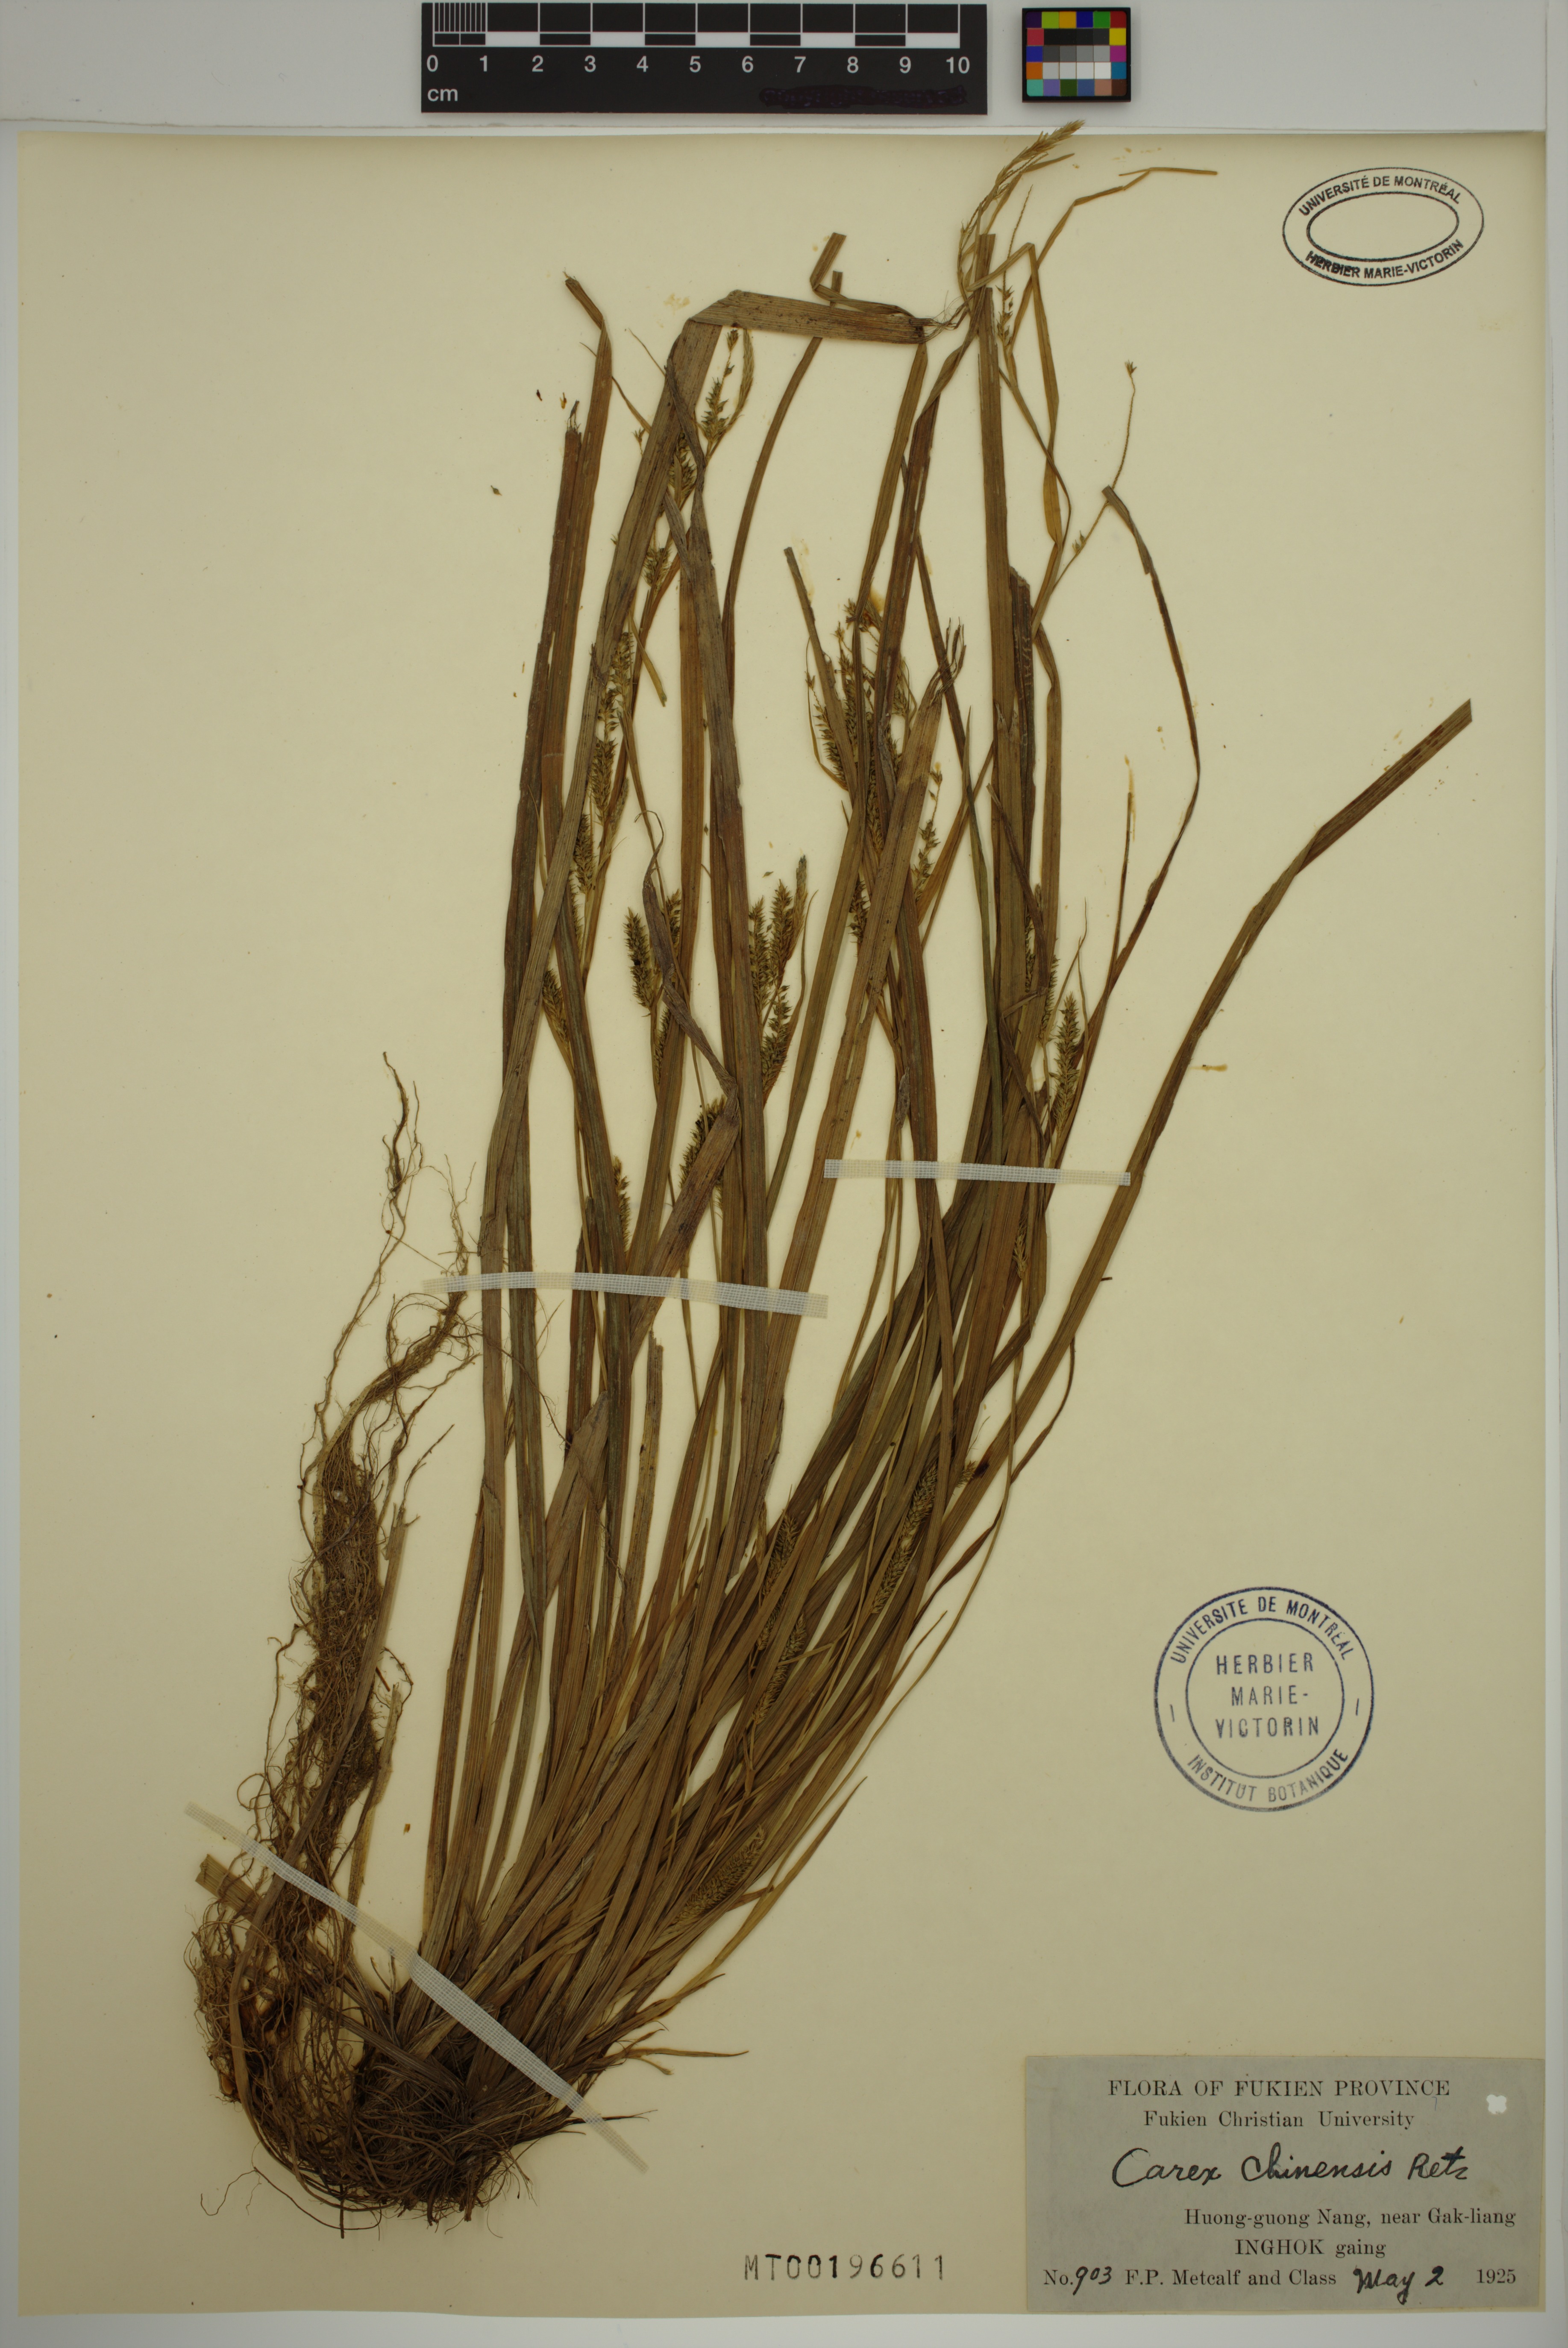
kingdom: Plantae
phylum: Tracheophyta
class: Liliopsida
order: Poales
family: Cyperaceae
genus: Carex
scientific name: Carex chinensis
